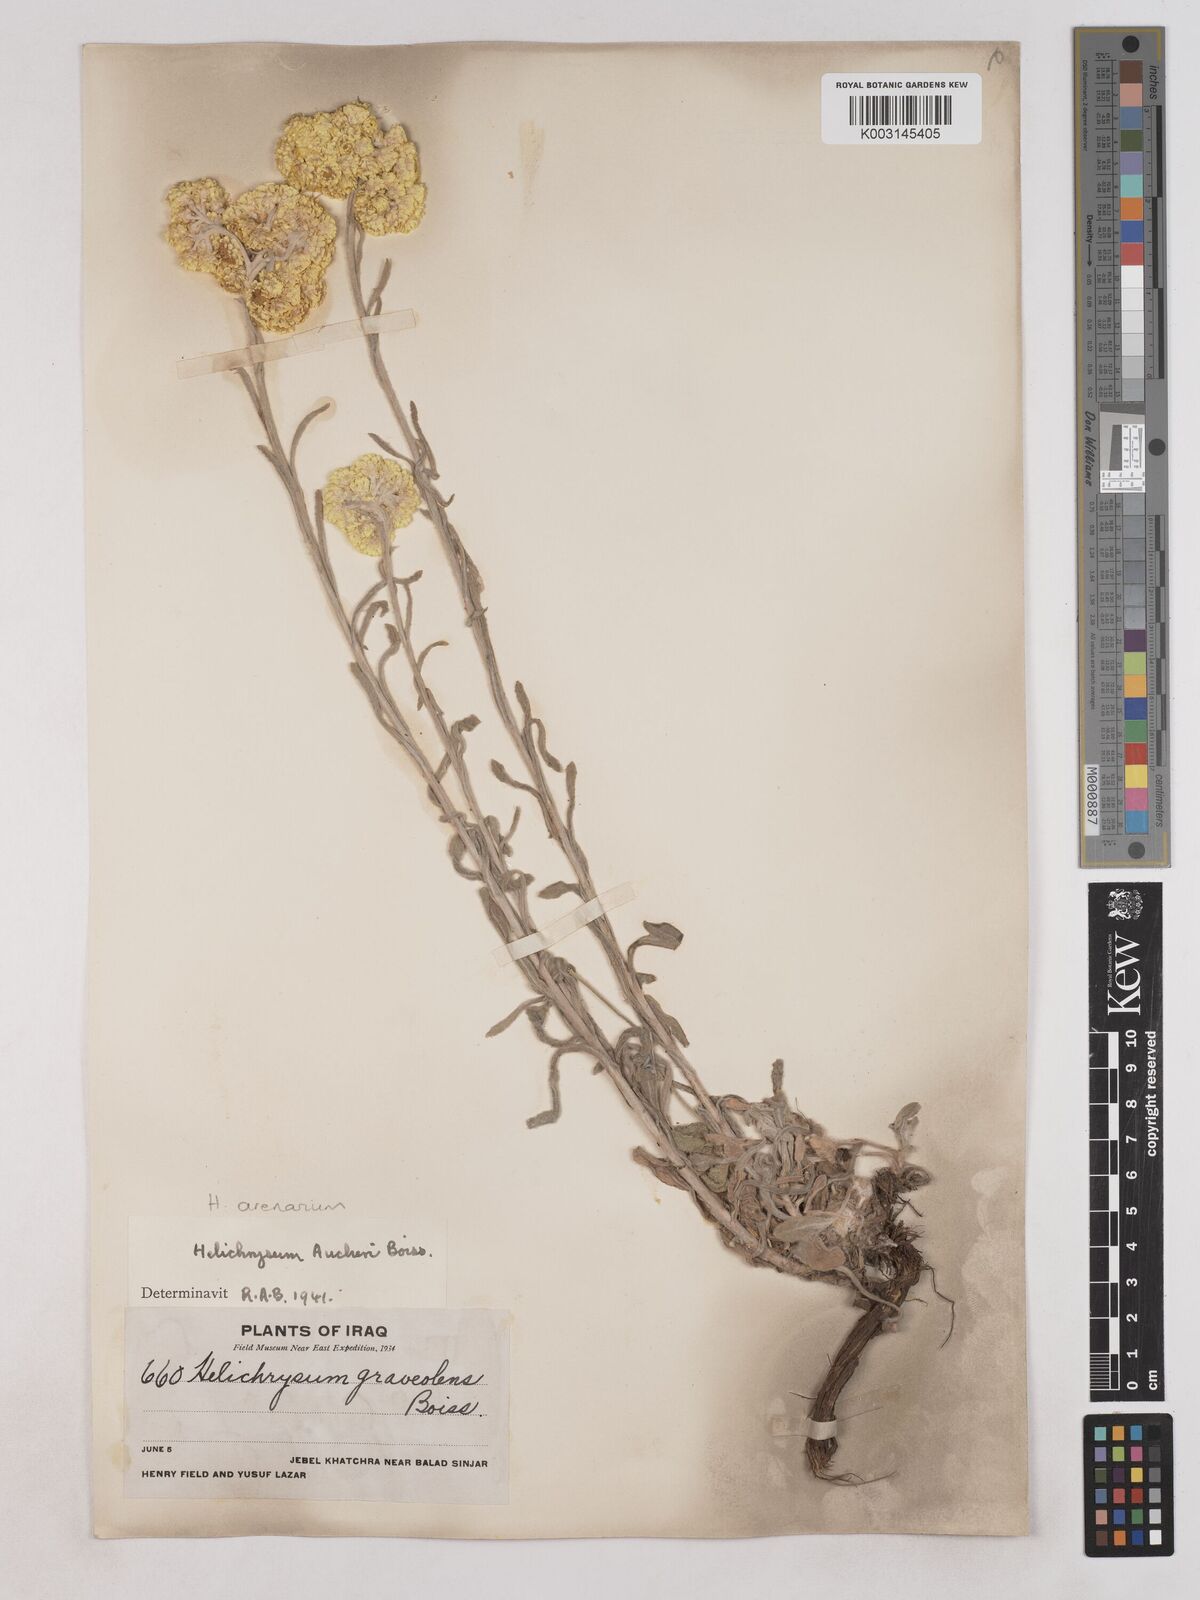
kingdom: Plantae
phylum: Tracheophyta
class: Magnoliopsida
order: Asterales
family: Asteraceae
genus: Helichrysum
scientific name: Helichrysum arenarium
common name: Strawflower
